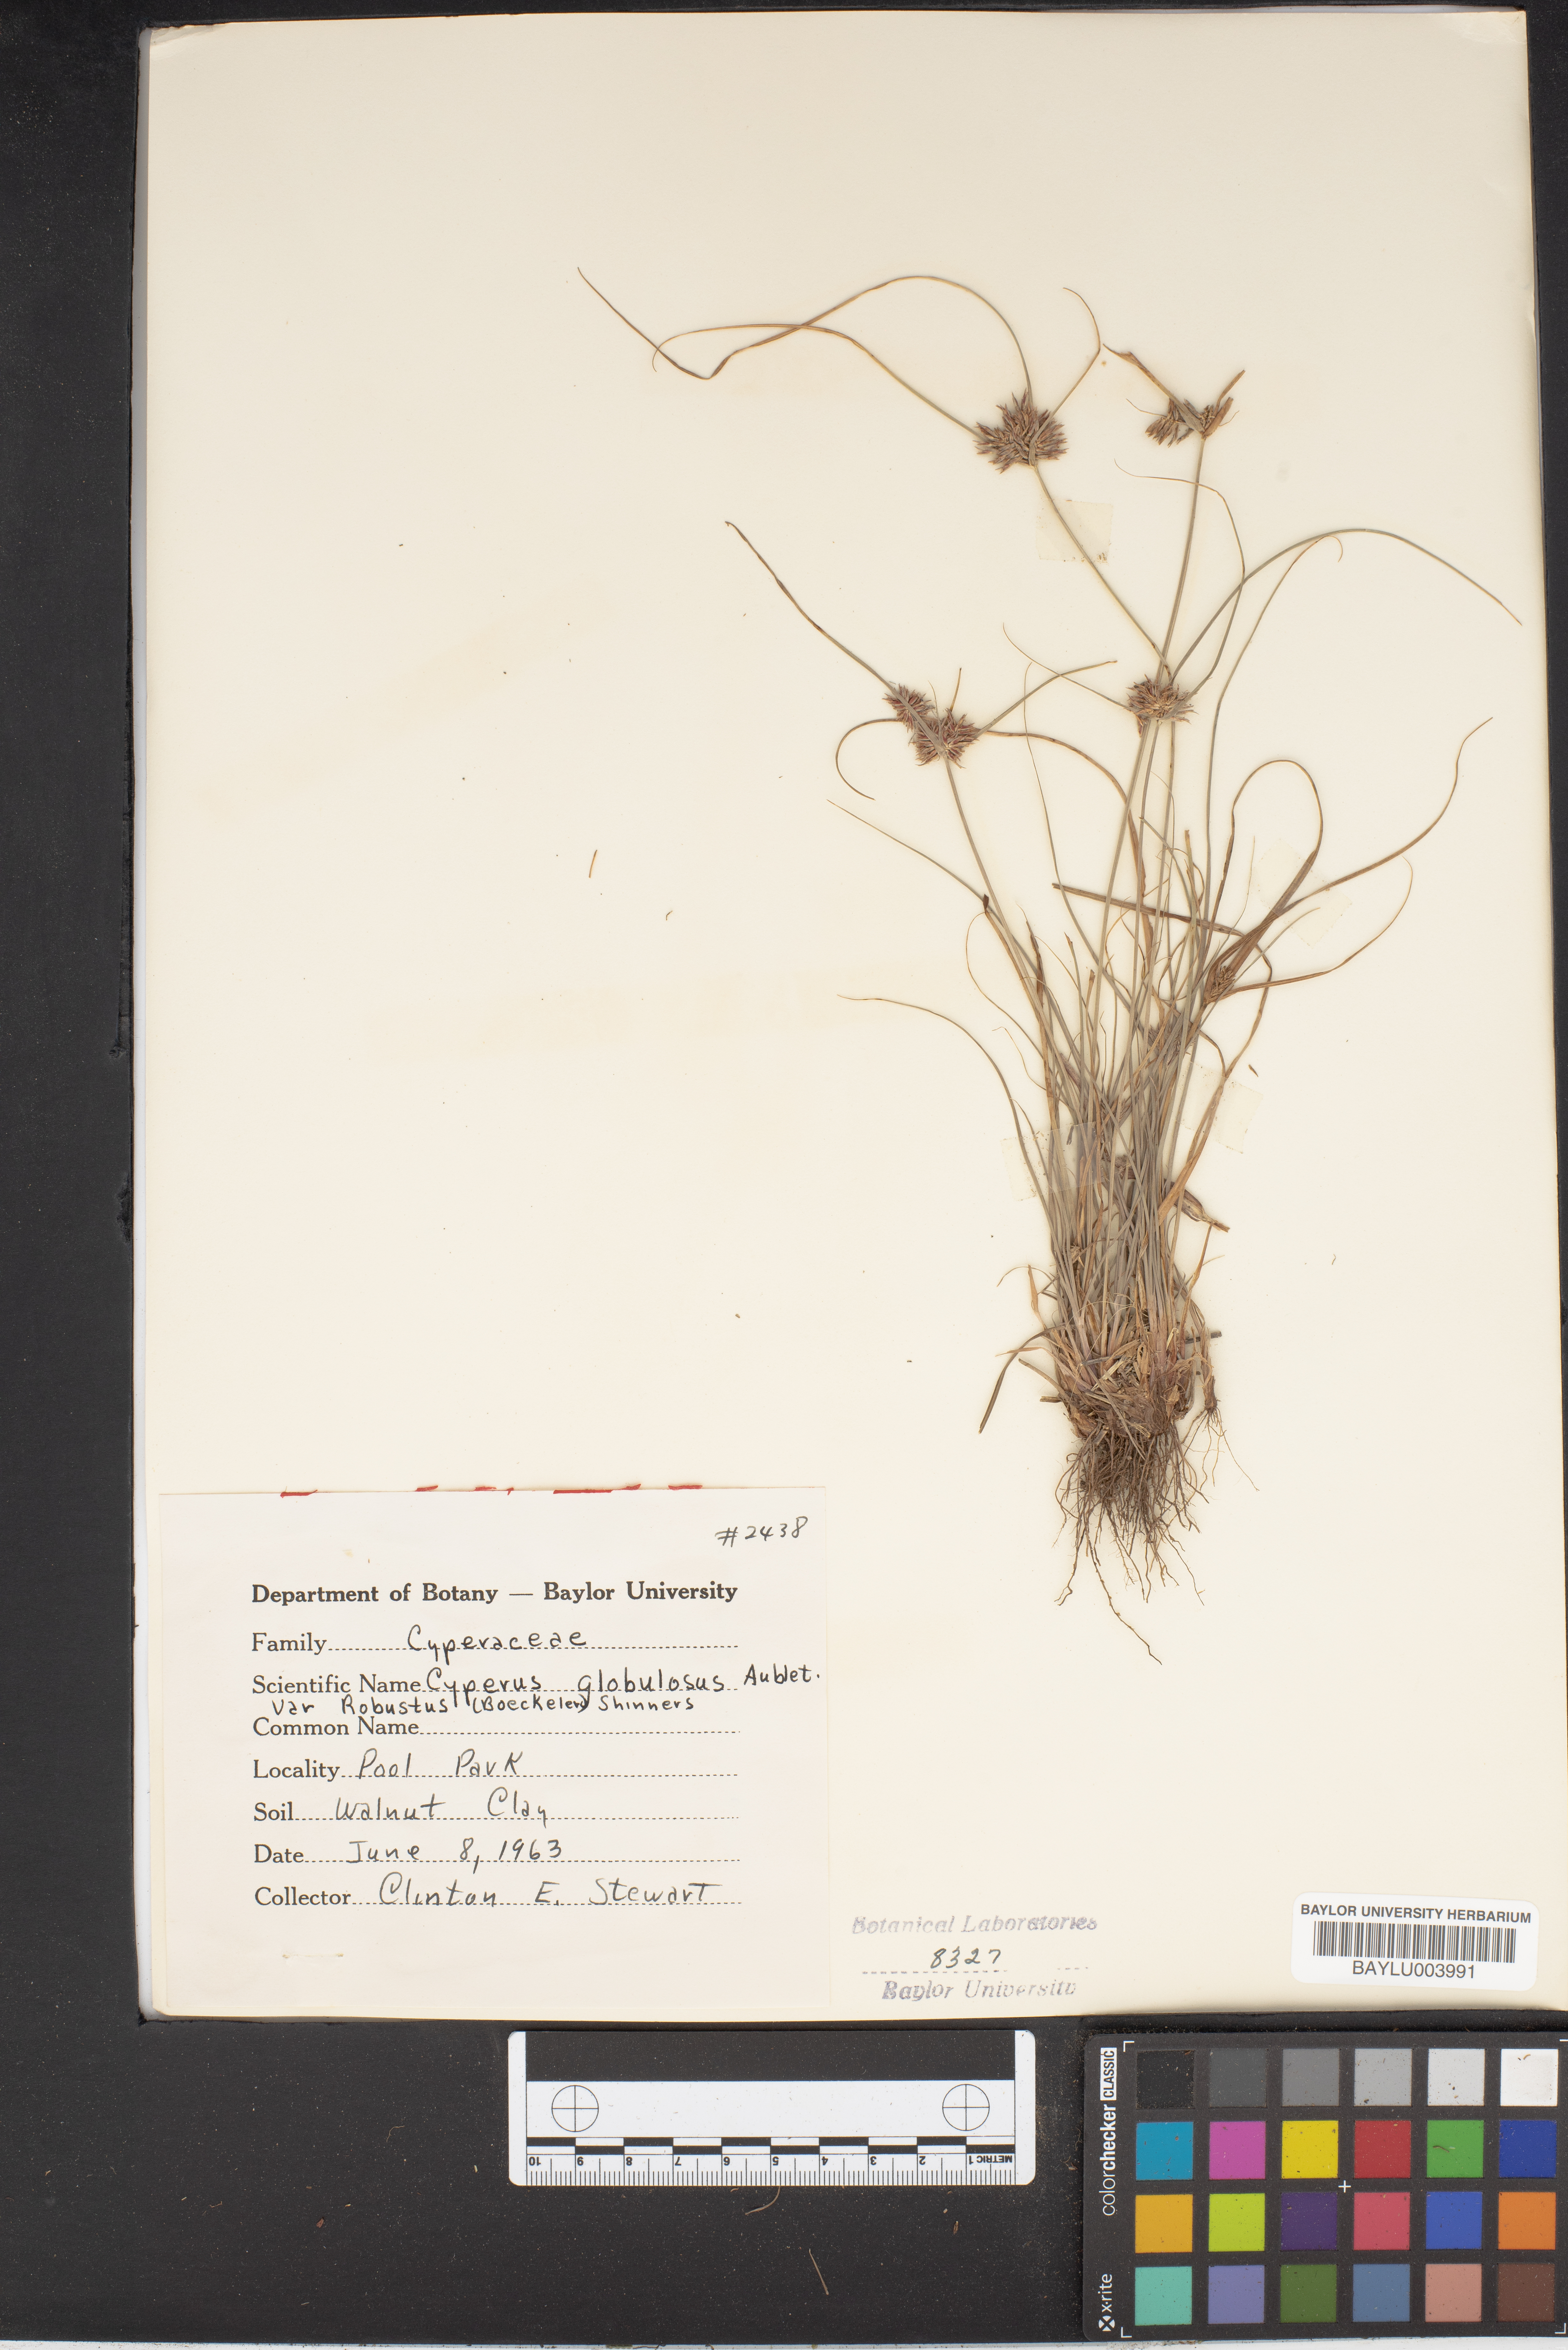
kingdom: Plantae
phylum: Tracheophyta
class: Liliopsida
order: Poales
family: Cyperaceae
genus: Cyperus
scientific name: Cyperus luzulae
